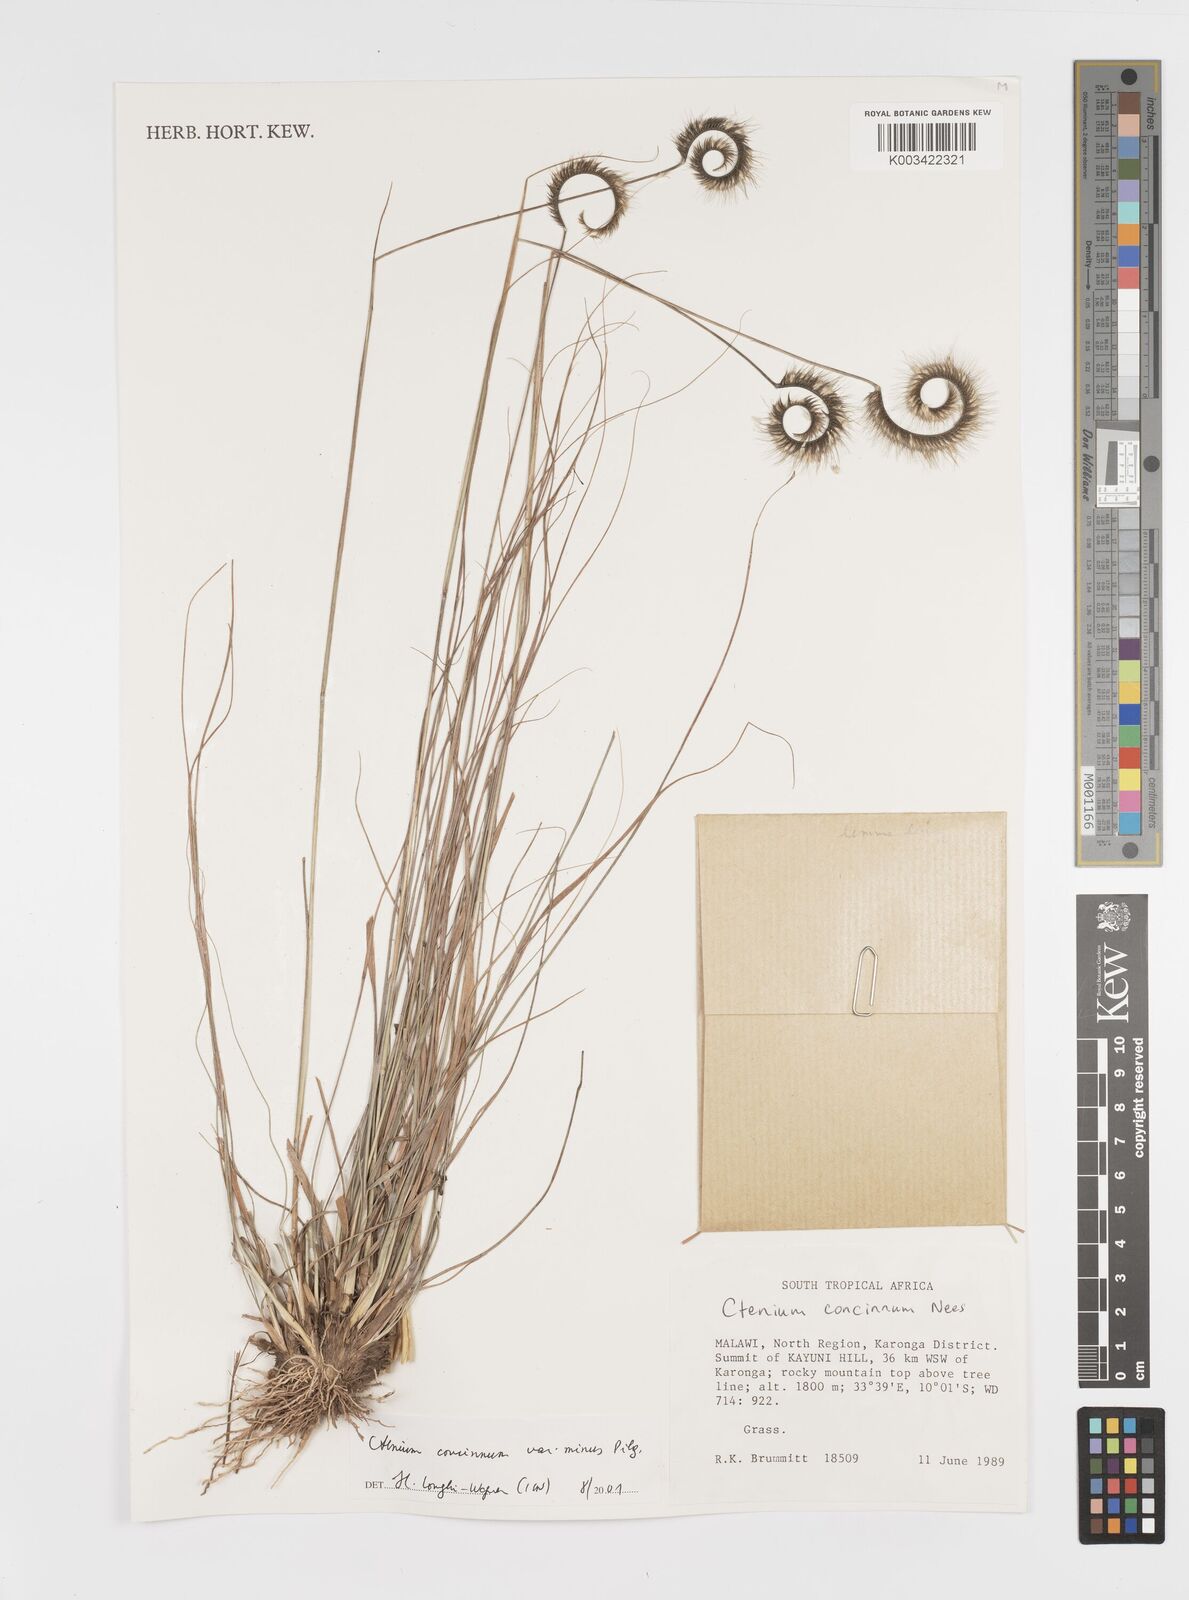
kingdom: Plantae
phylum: Tracheophyta
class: Liliopsida
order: Poales
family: Poaceae
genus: Ctenium
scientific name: Ctenium concinnum
